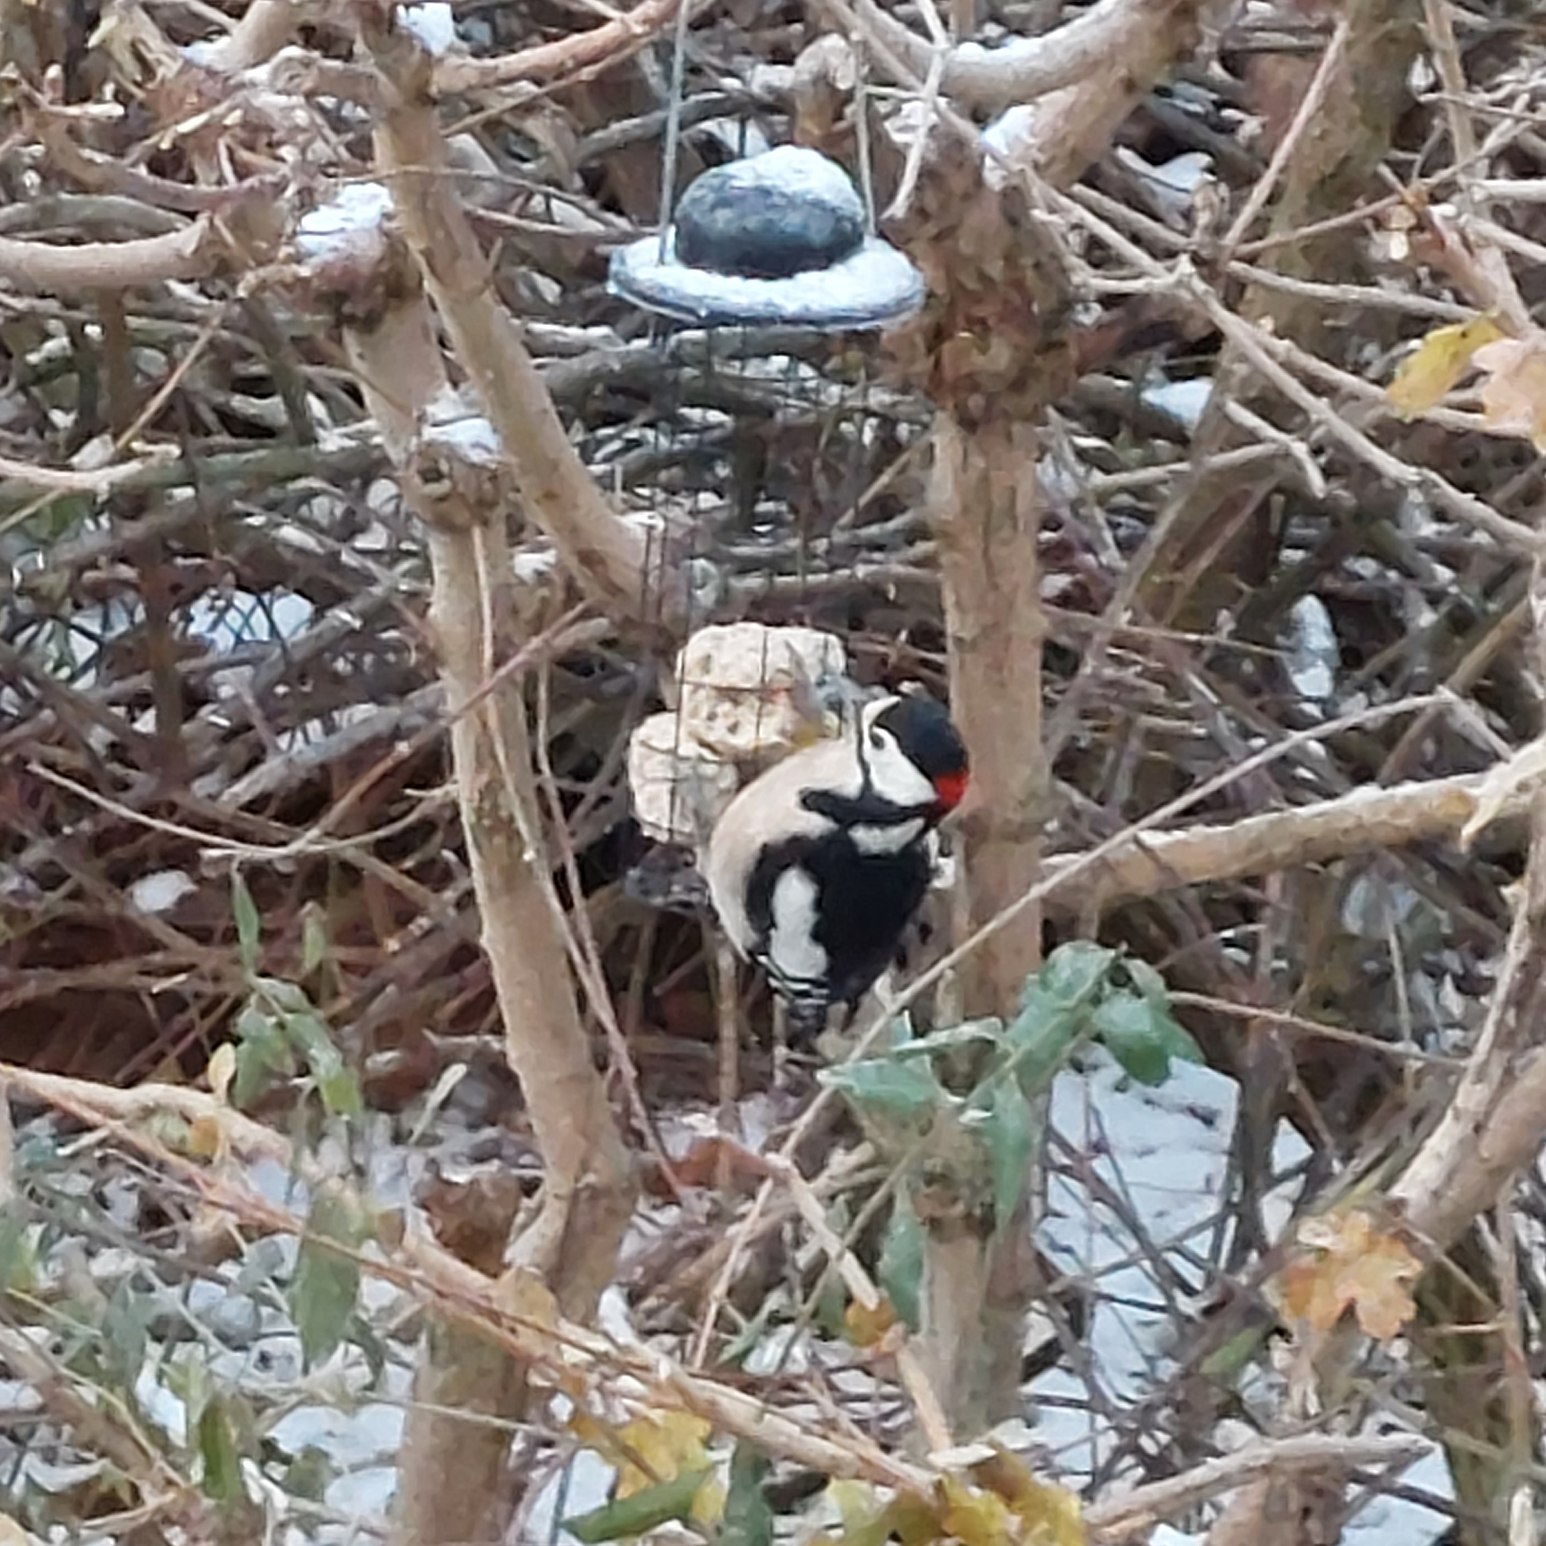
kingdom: Animalia
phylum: Chordata
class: Aves
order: Piciformes
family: Picidae
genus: Dendrocopos
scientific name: Dendrocopos major
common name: Stor flagspætte
